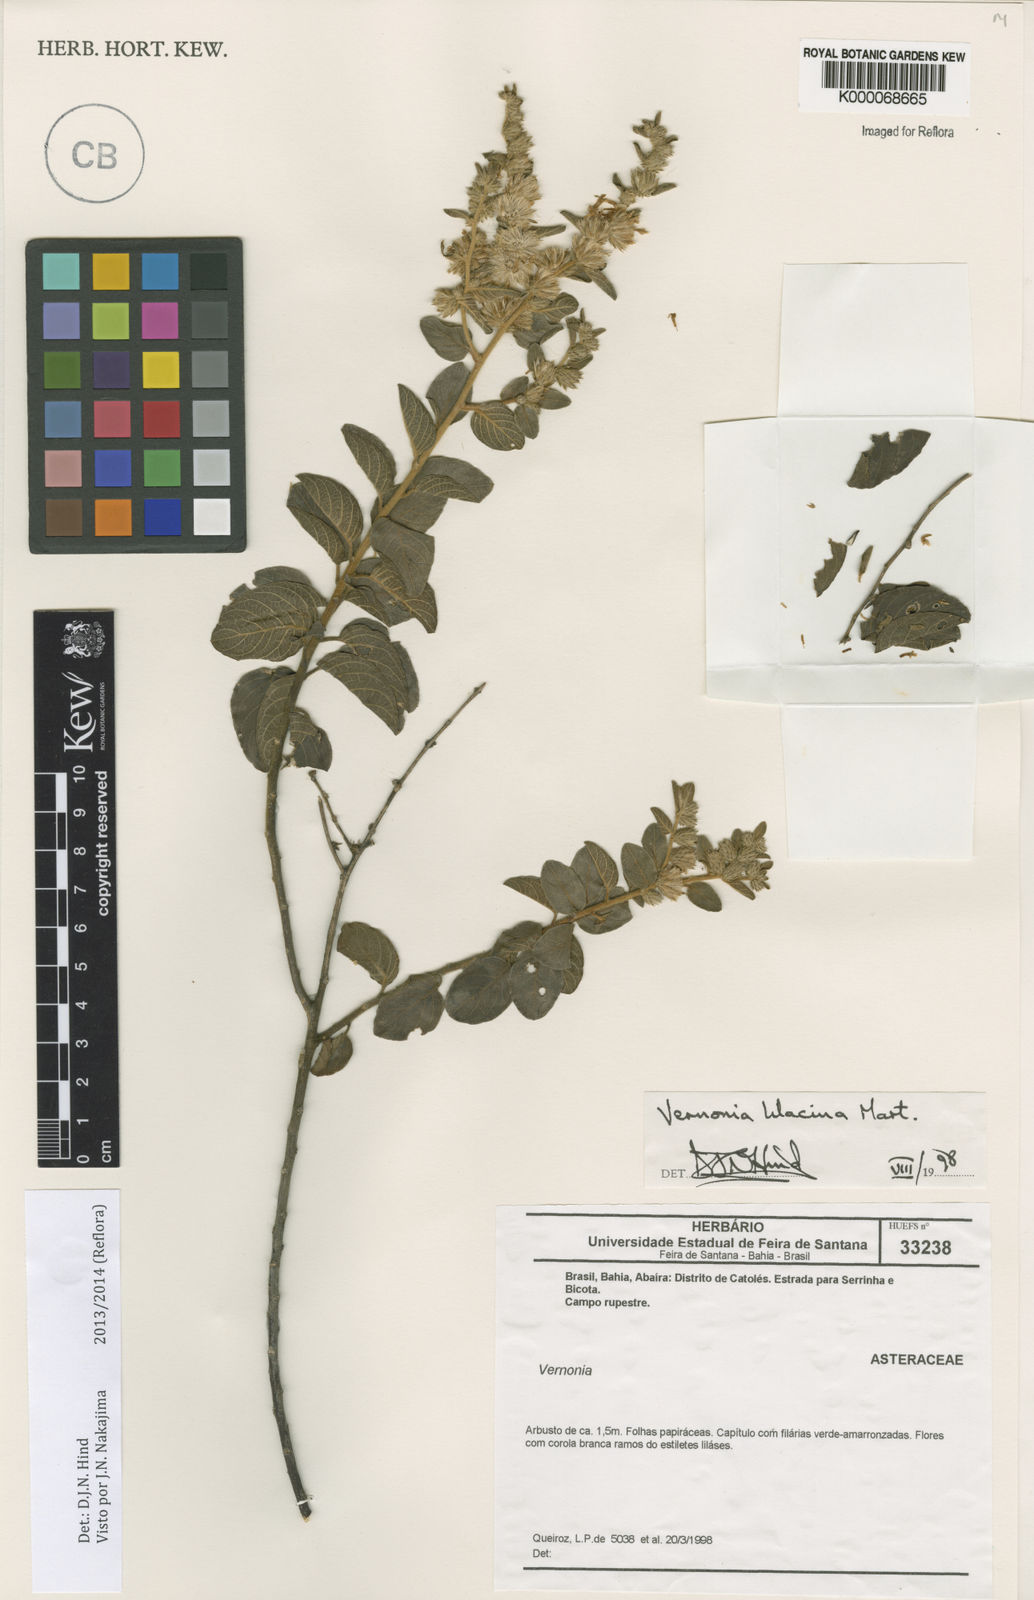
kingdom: Plantae
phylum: Tracheophyta
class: Magnoliopsida
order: Asterales
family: Asteraceae
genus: Lepidaploa
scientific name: Lepidaploa lilacina
